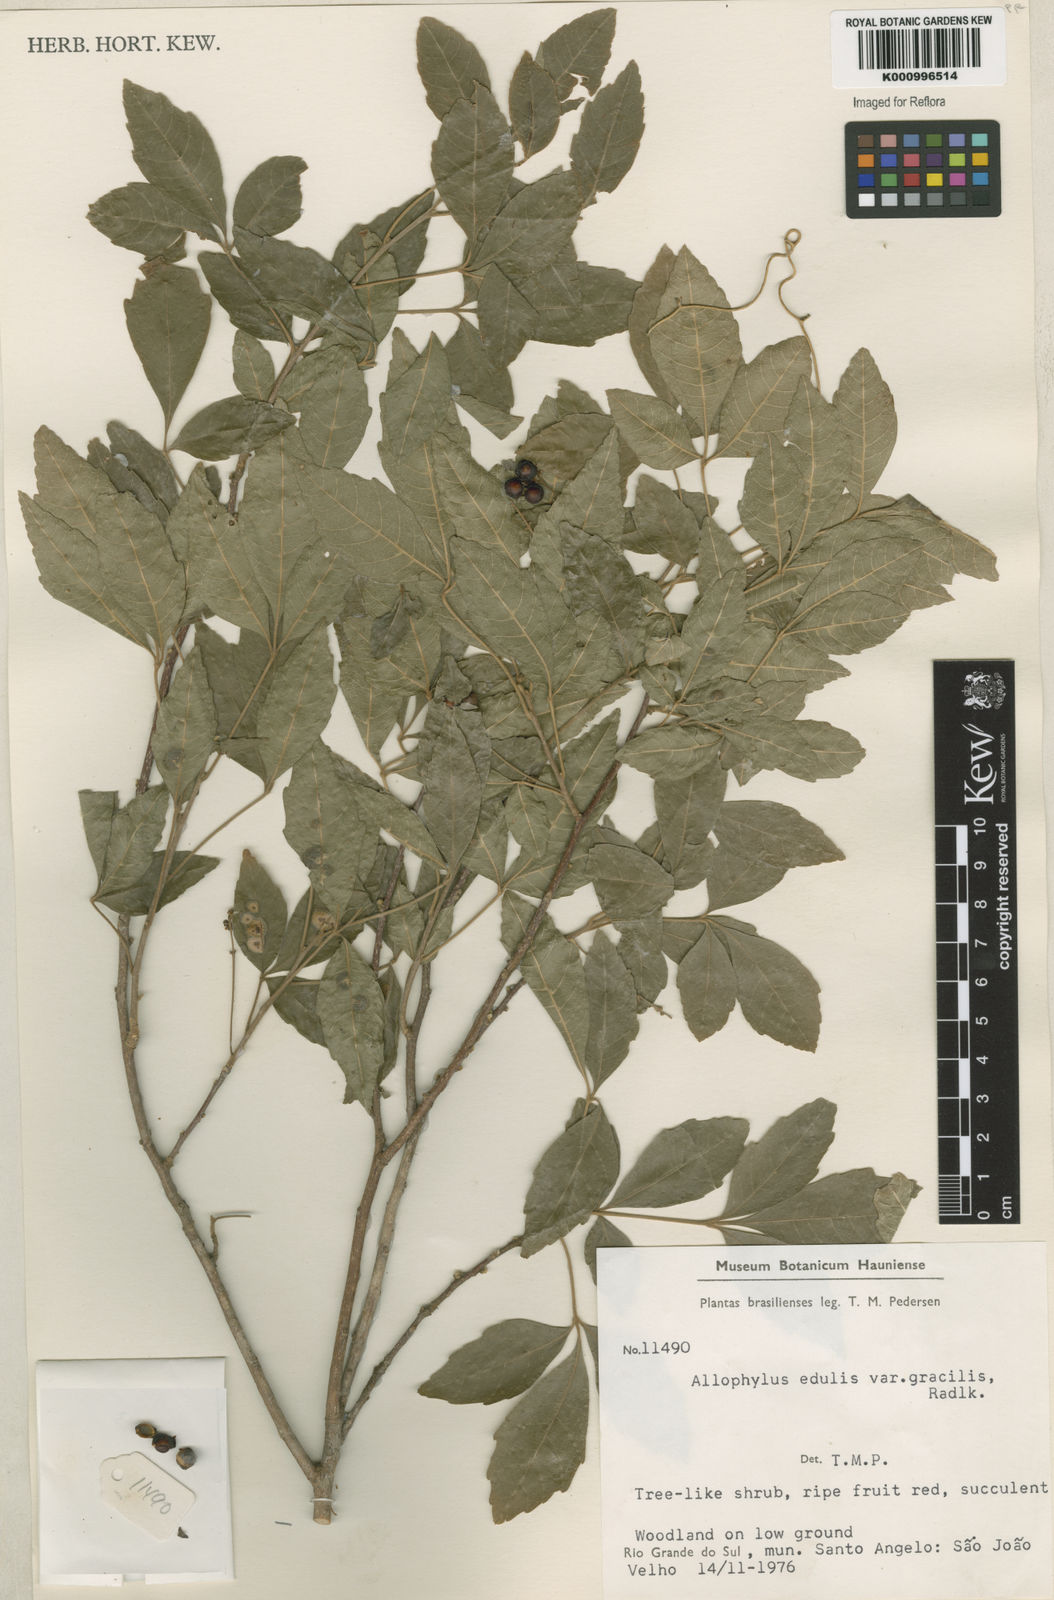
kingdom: Plantae
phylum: Tracheophyta
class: Magnoliopsida
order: Sapindales
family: Sapindaceae
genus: Allophylus
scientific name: Allophylus
